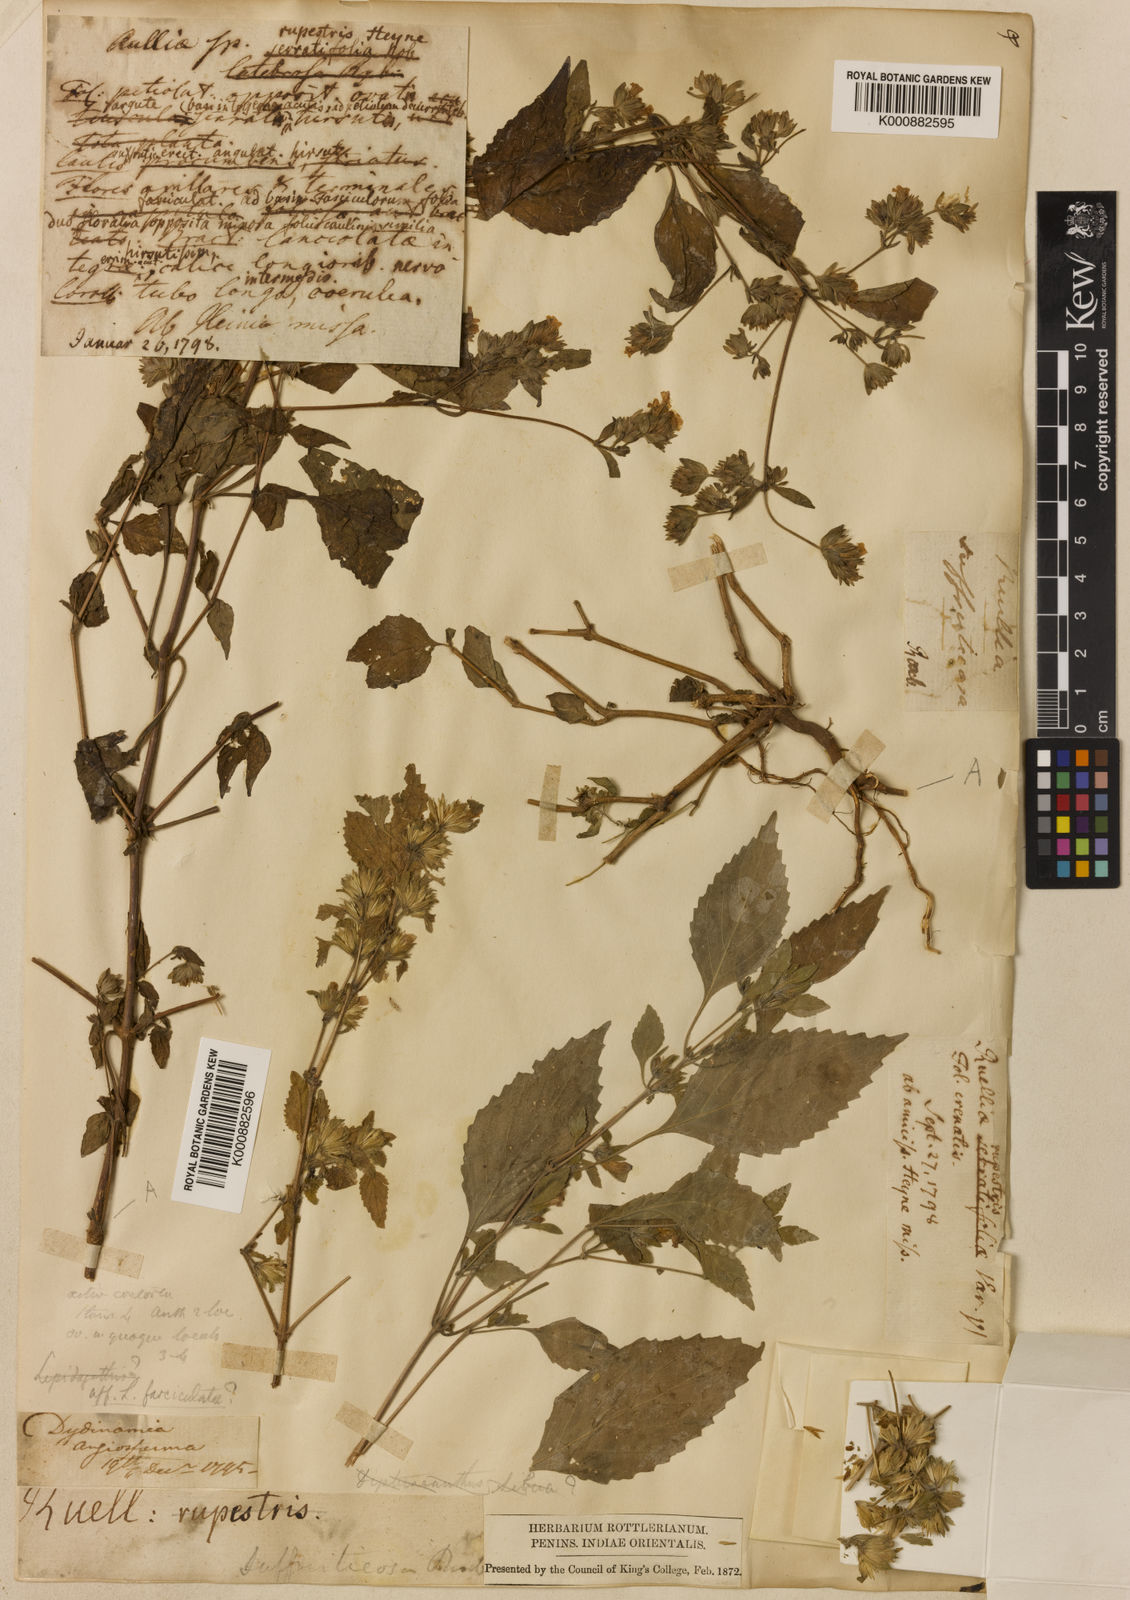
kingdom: Plantae
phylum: Tracheophyta
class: Magnoliopsida
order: Lamiales
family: Acanthaceae
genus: Strobilanthes
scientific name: Strobilanthes pavala
